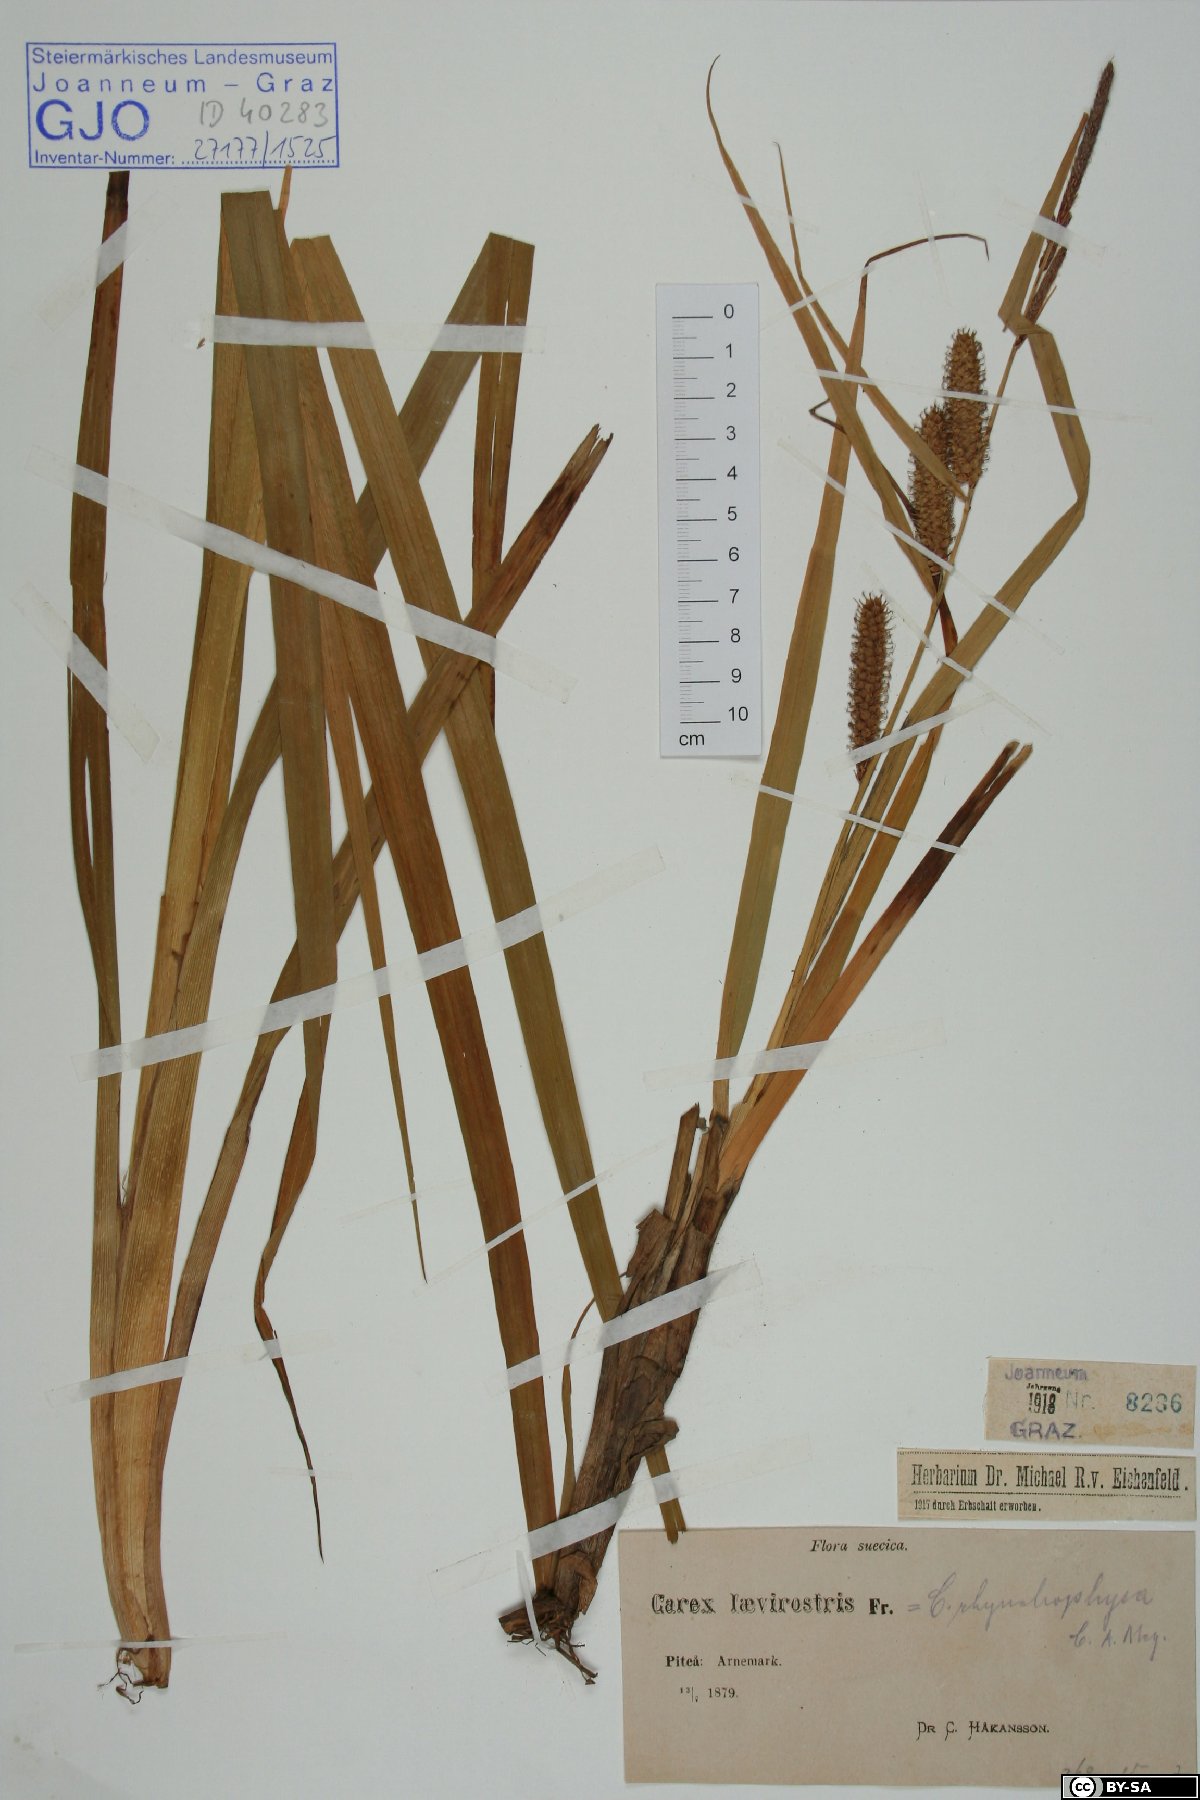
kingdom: Plantae
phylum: Tracheophyta
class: Liliopsida
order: Poales
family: Cyperaceae
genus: Carex
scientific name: Carex utriculata
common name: Beaked sedge
